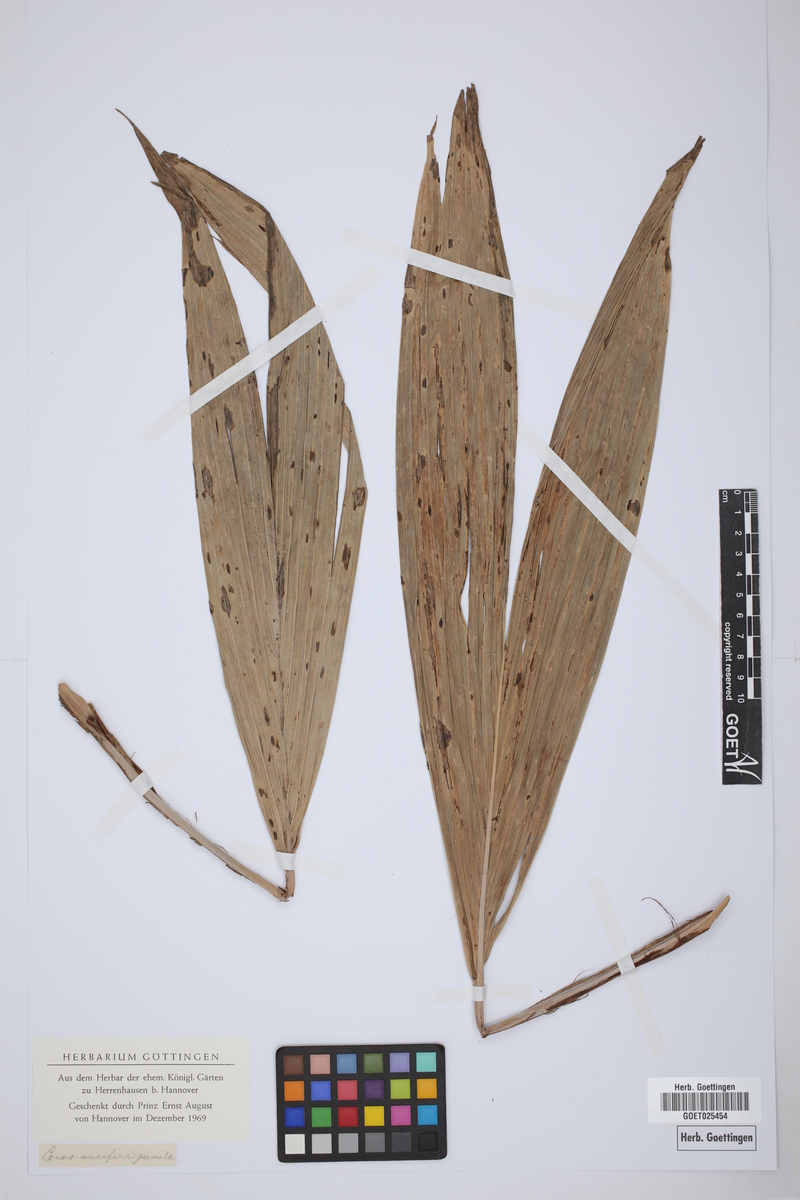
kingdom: Plantae
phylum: Tracheophyta
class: Liliopsida
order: Arecales
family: Arecaceae
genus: Cocos
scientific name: Cocos nucifera
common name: Coconut palm
